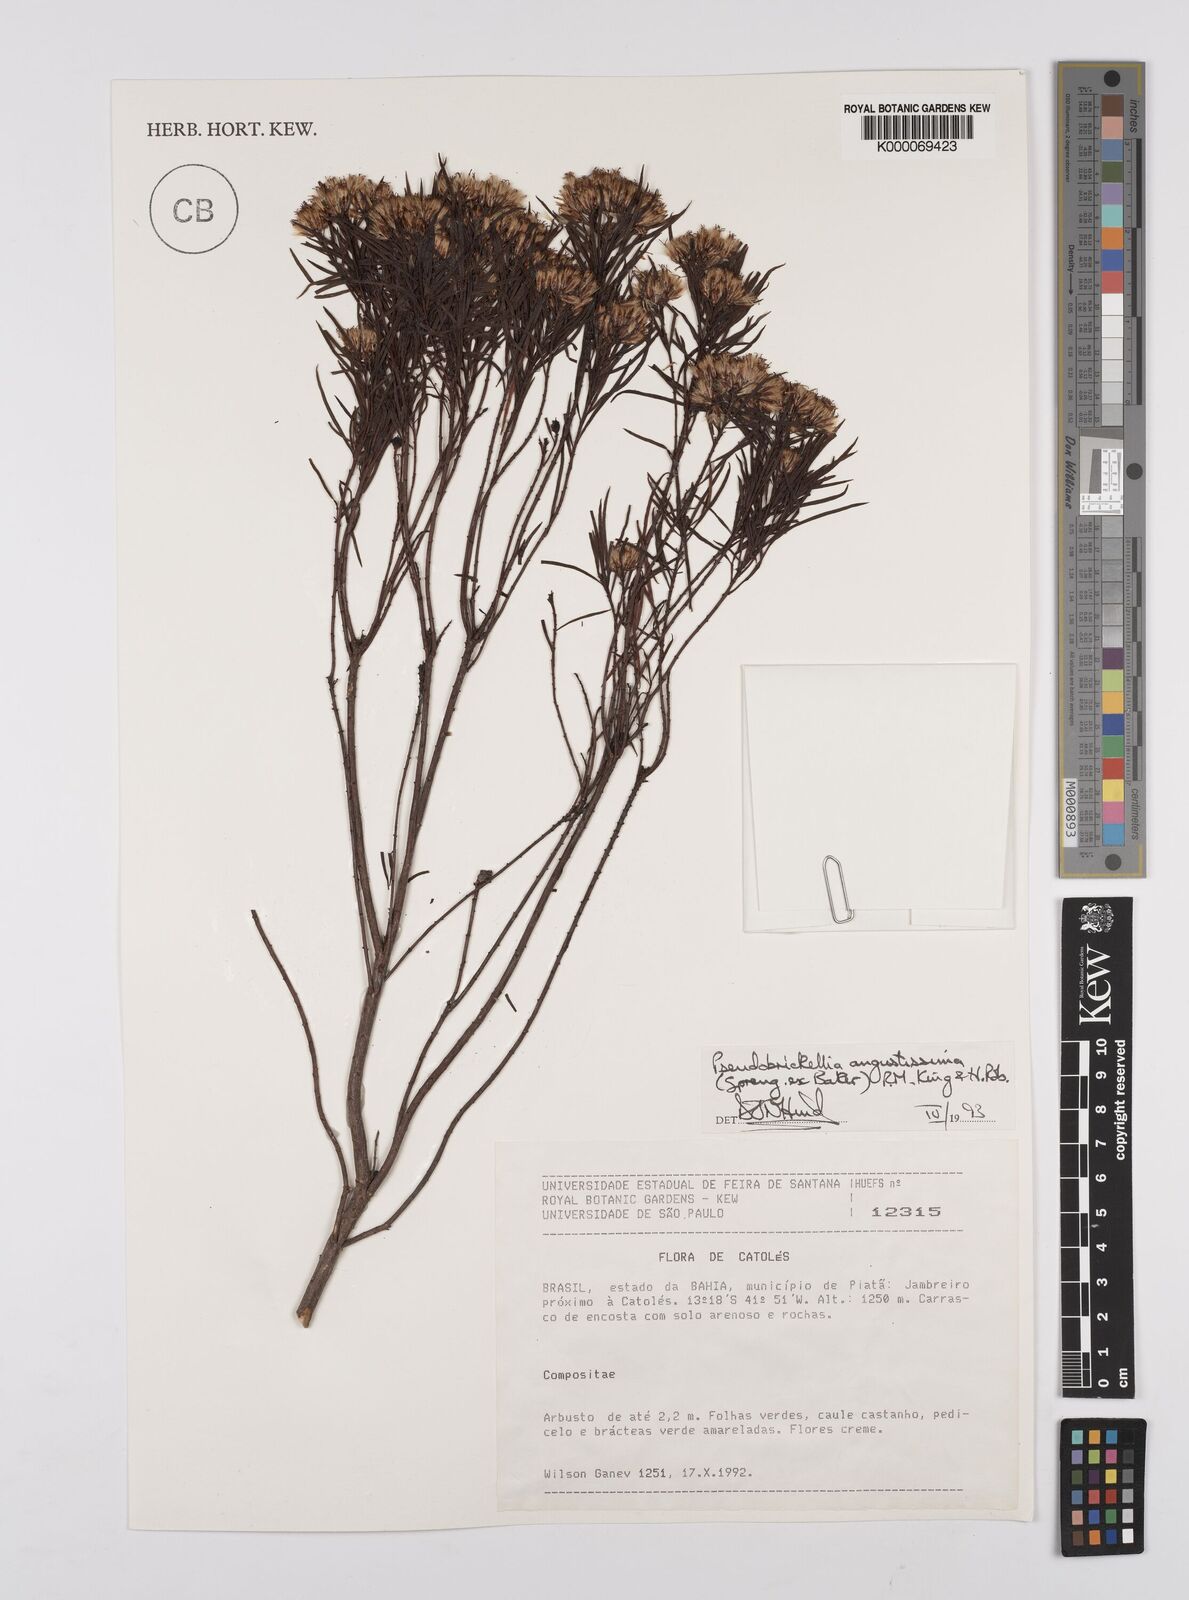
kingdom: Plantae
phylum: Tracheophyta
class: Magnoliopsida
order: Asterales
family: Asteraceae
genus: Pseudobrickellia
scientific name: Pseudobrickellia angustissima
